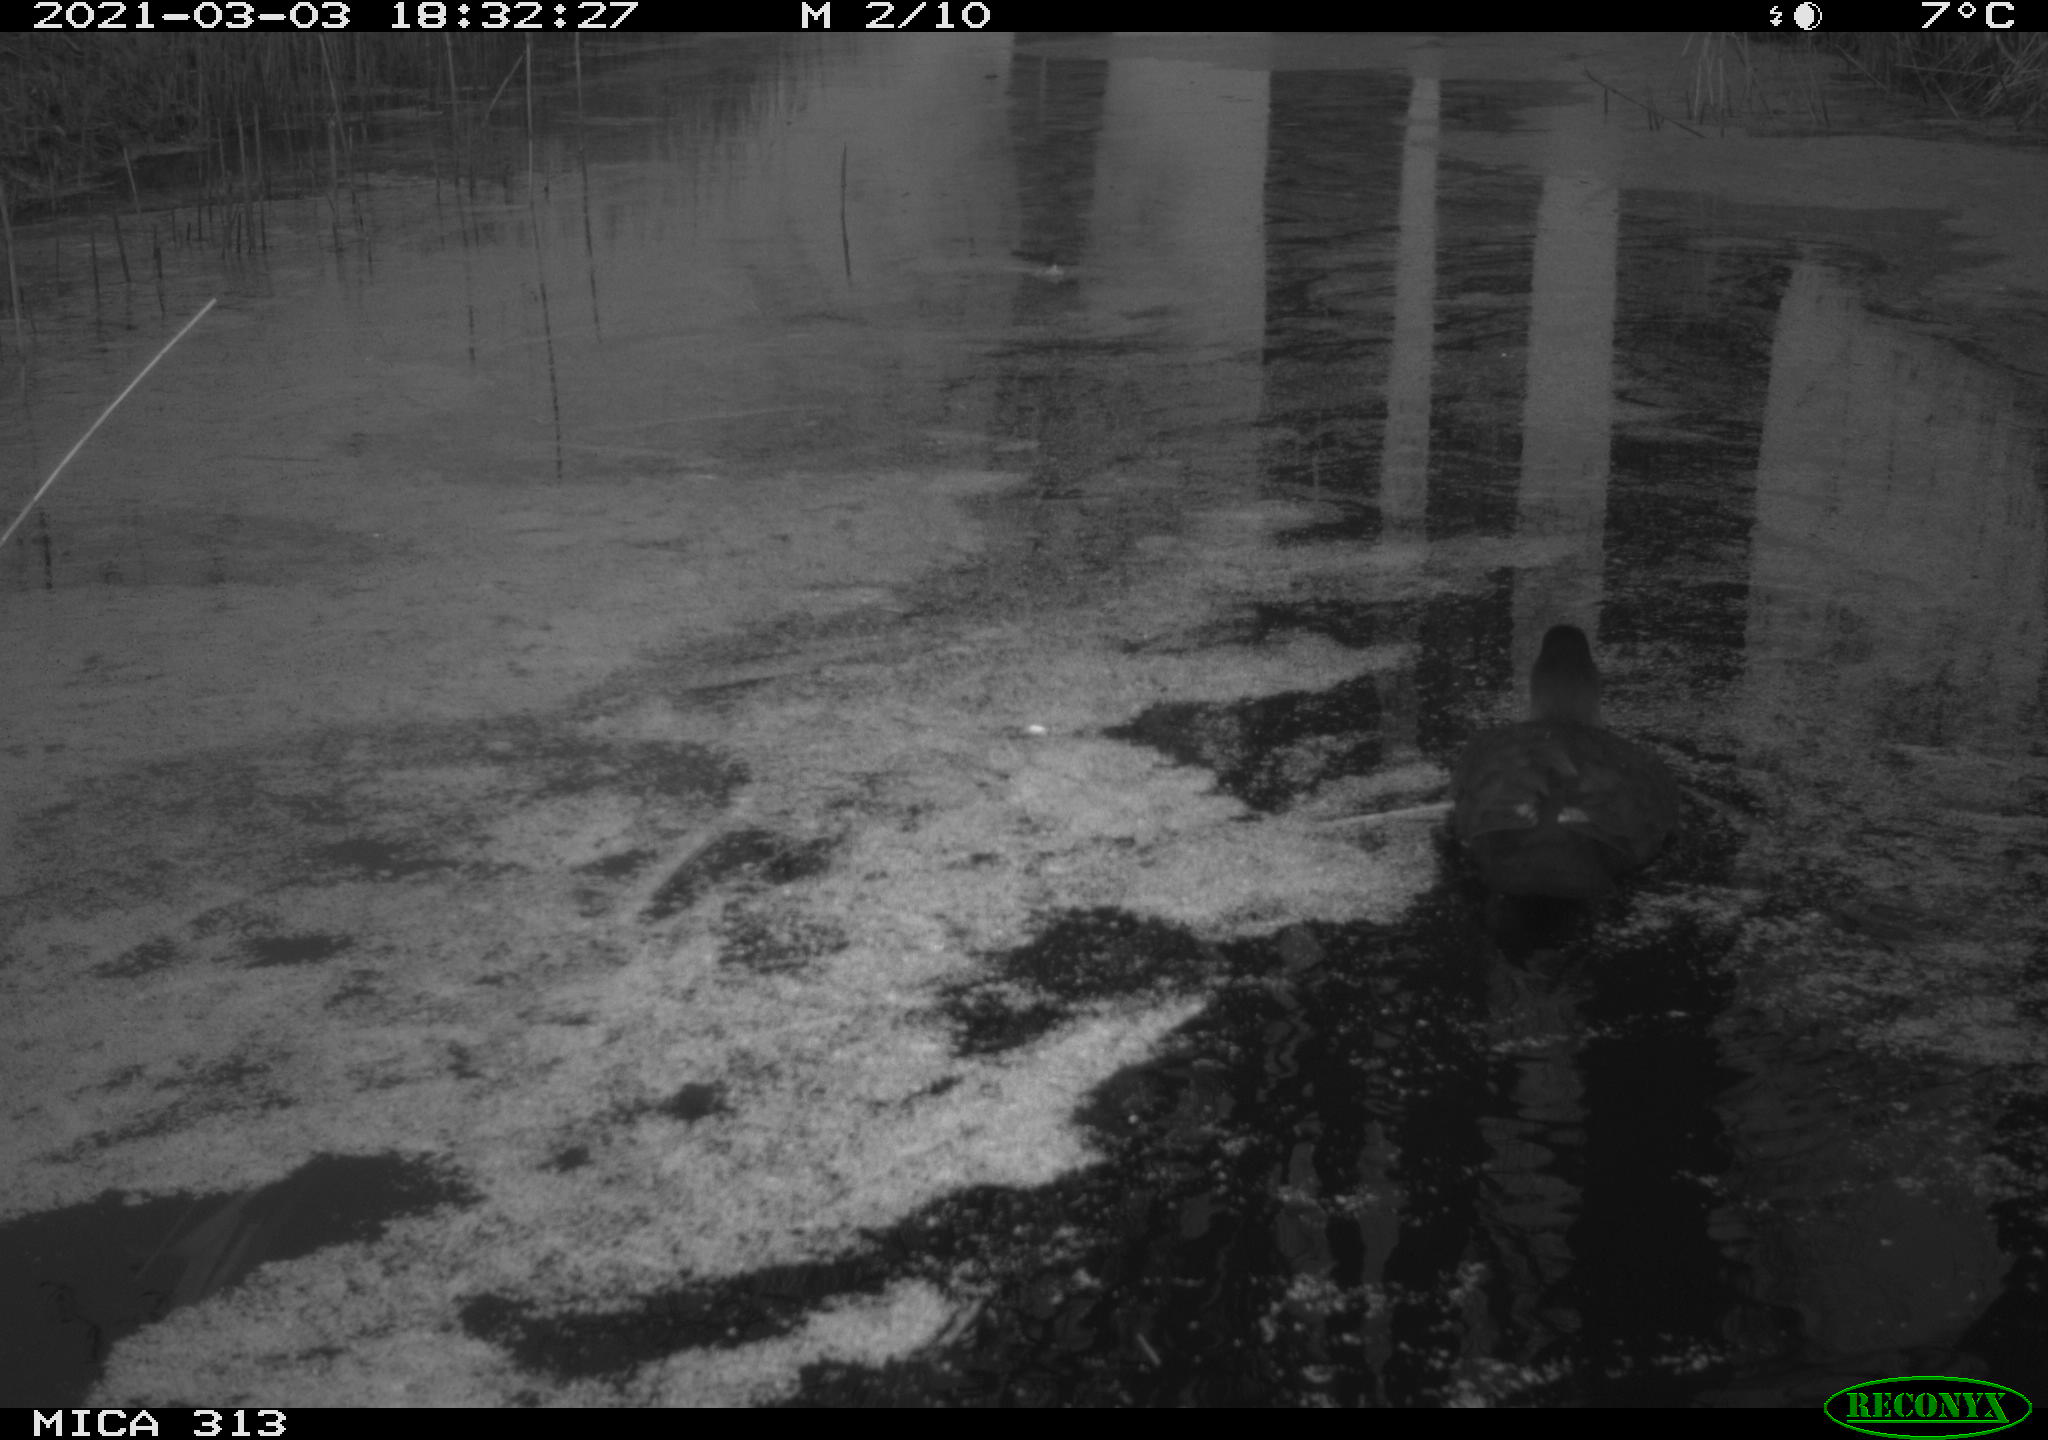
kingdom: Animalia
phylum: Chordata
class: Aves
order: Gruiformes
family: Rallidae
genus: Gallinula
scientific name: Gallinula chloropus
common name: Common moorhen
